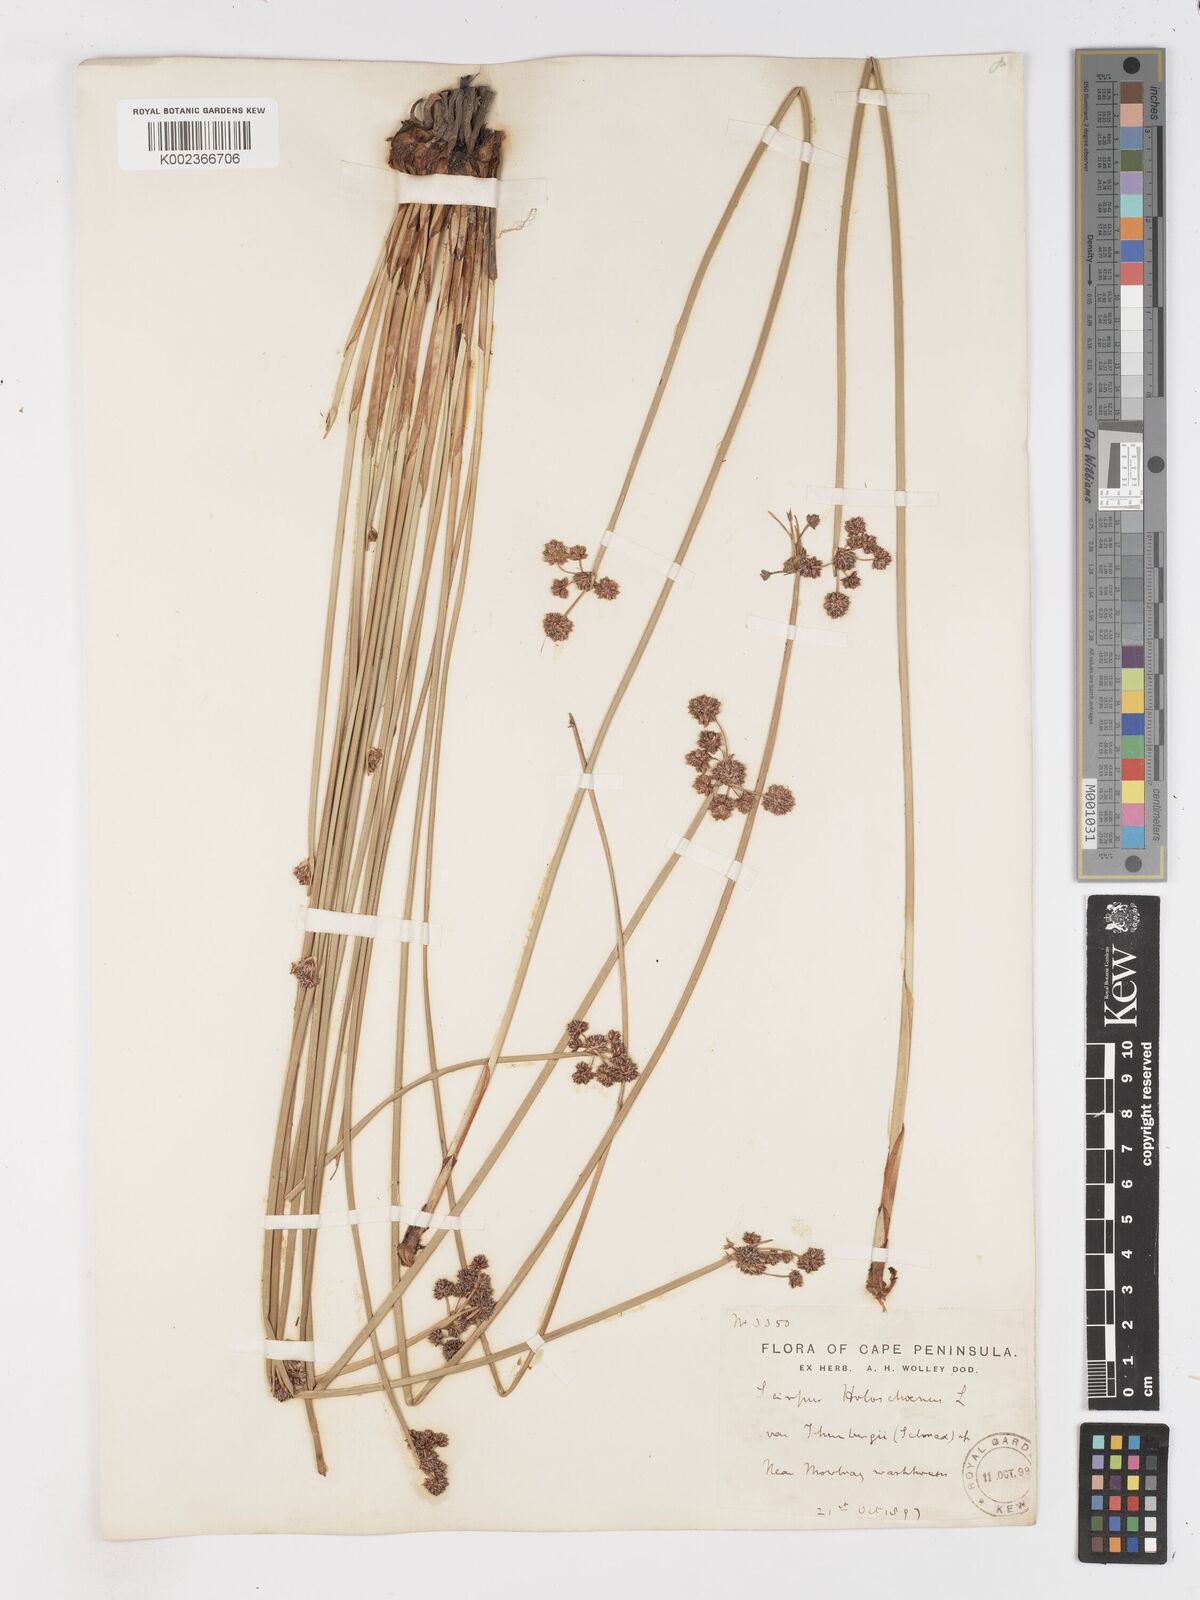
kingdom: Plantae
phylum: Tracheophyta
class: Liliopsida
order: Poales
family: Cyperaceae
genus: Scirpoides
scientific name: Scirpoides holoschoenus
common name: Round-headed club-rush
